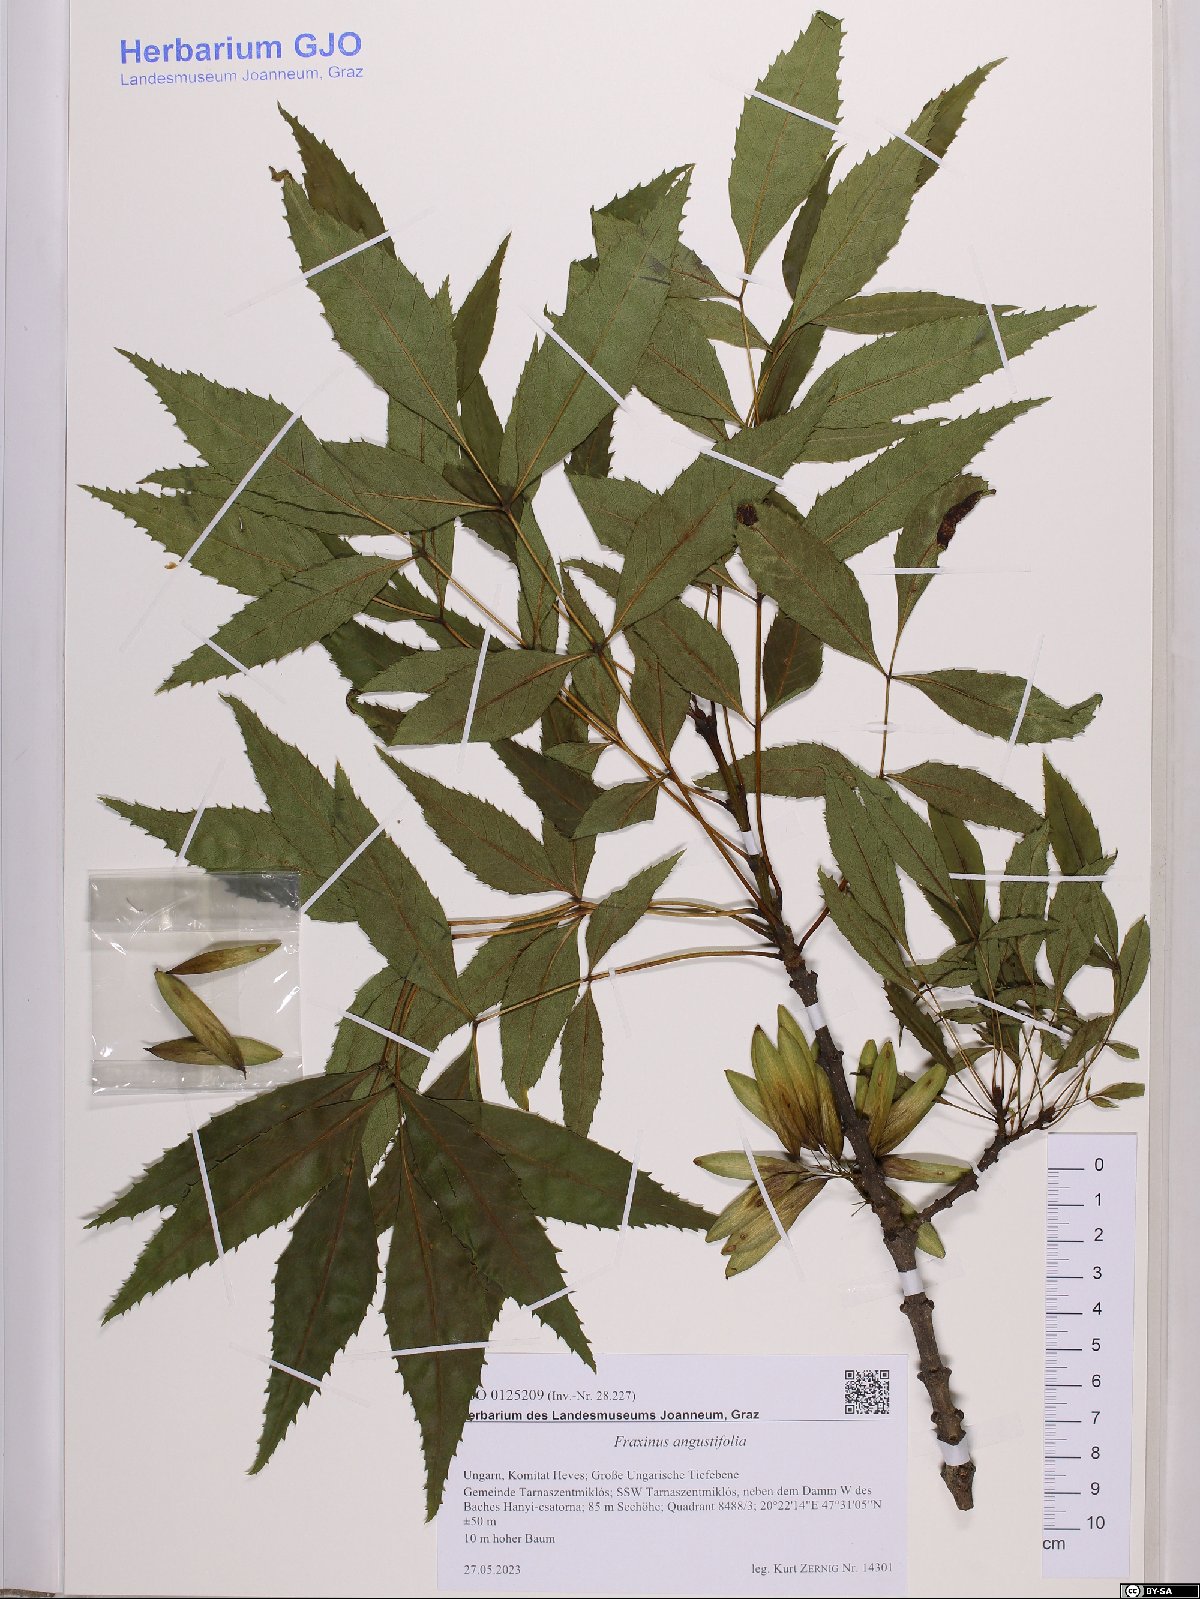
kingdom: Plantae
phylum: Tracheophyta
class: Magnoliopsida
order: Lamiales
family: Oleaceae
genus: Fraxinus
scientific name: Fraxinus angustifolia
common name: Narrow-leafed ash
